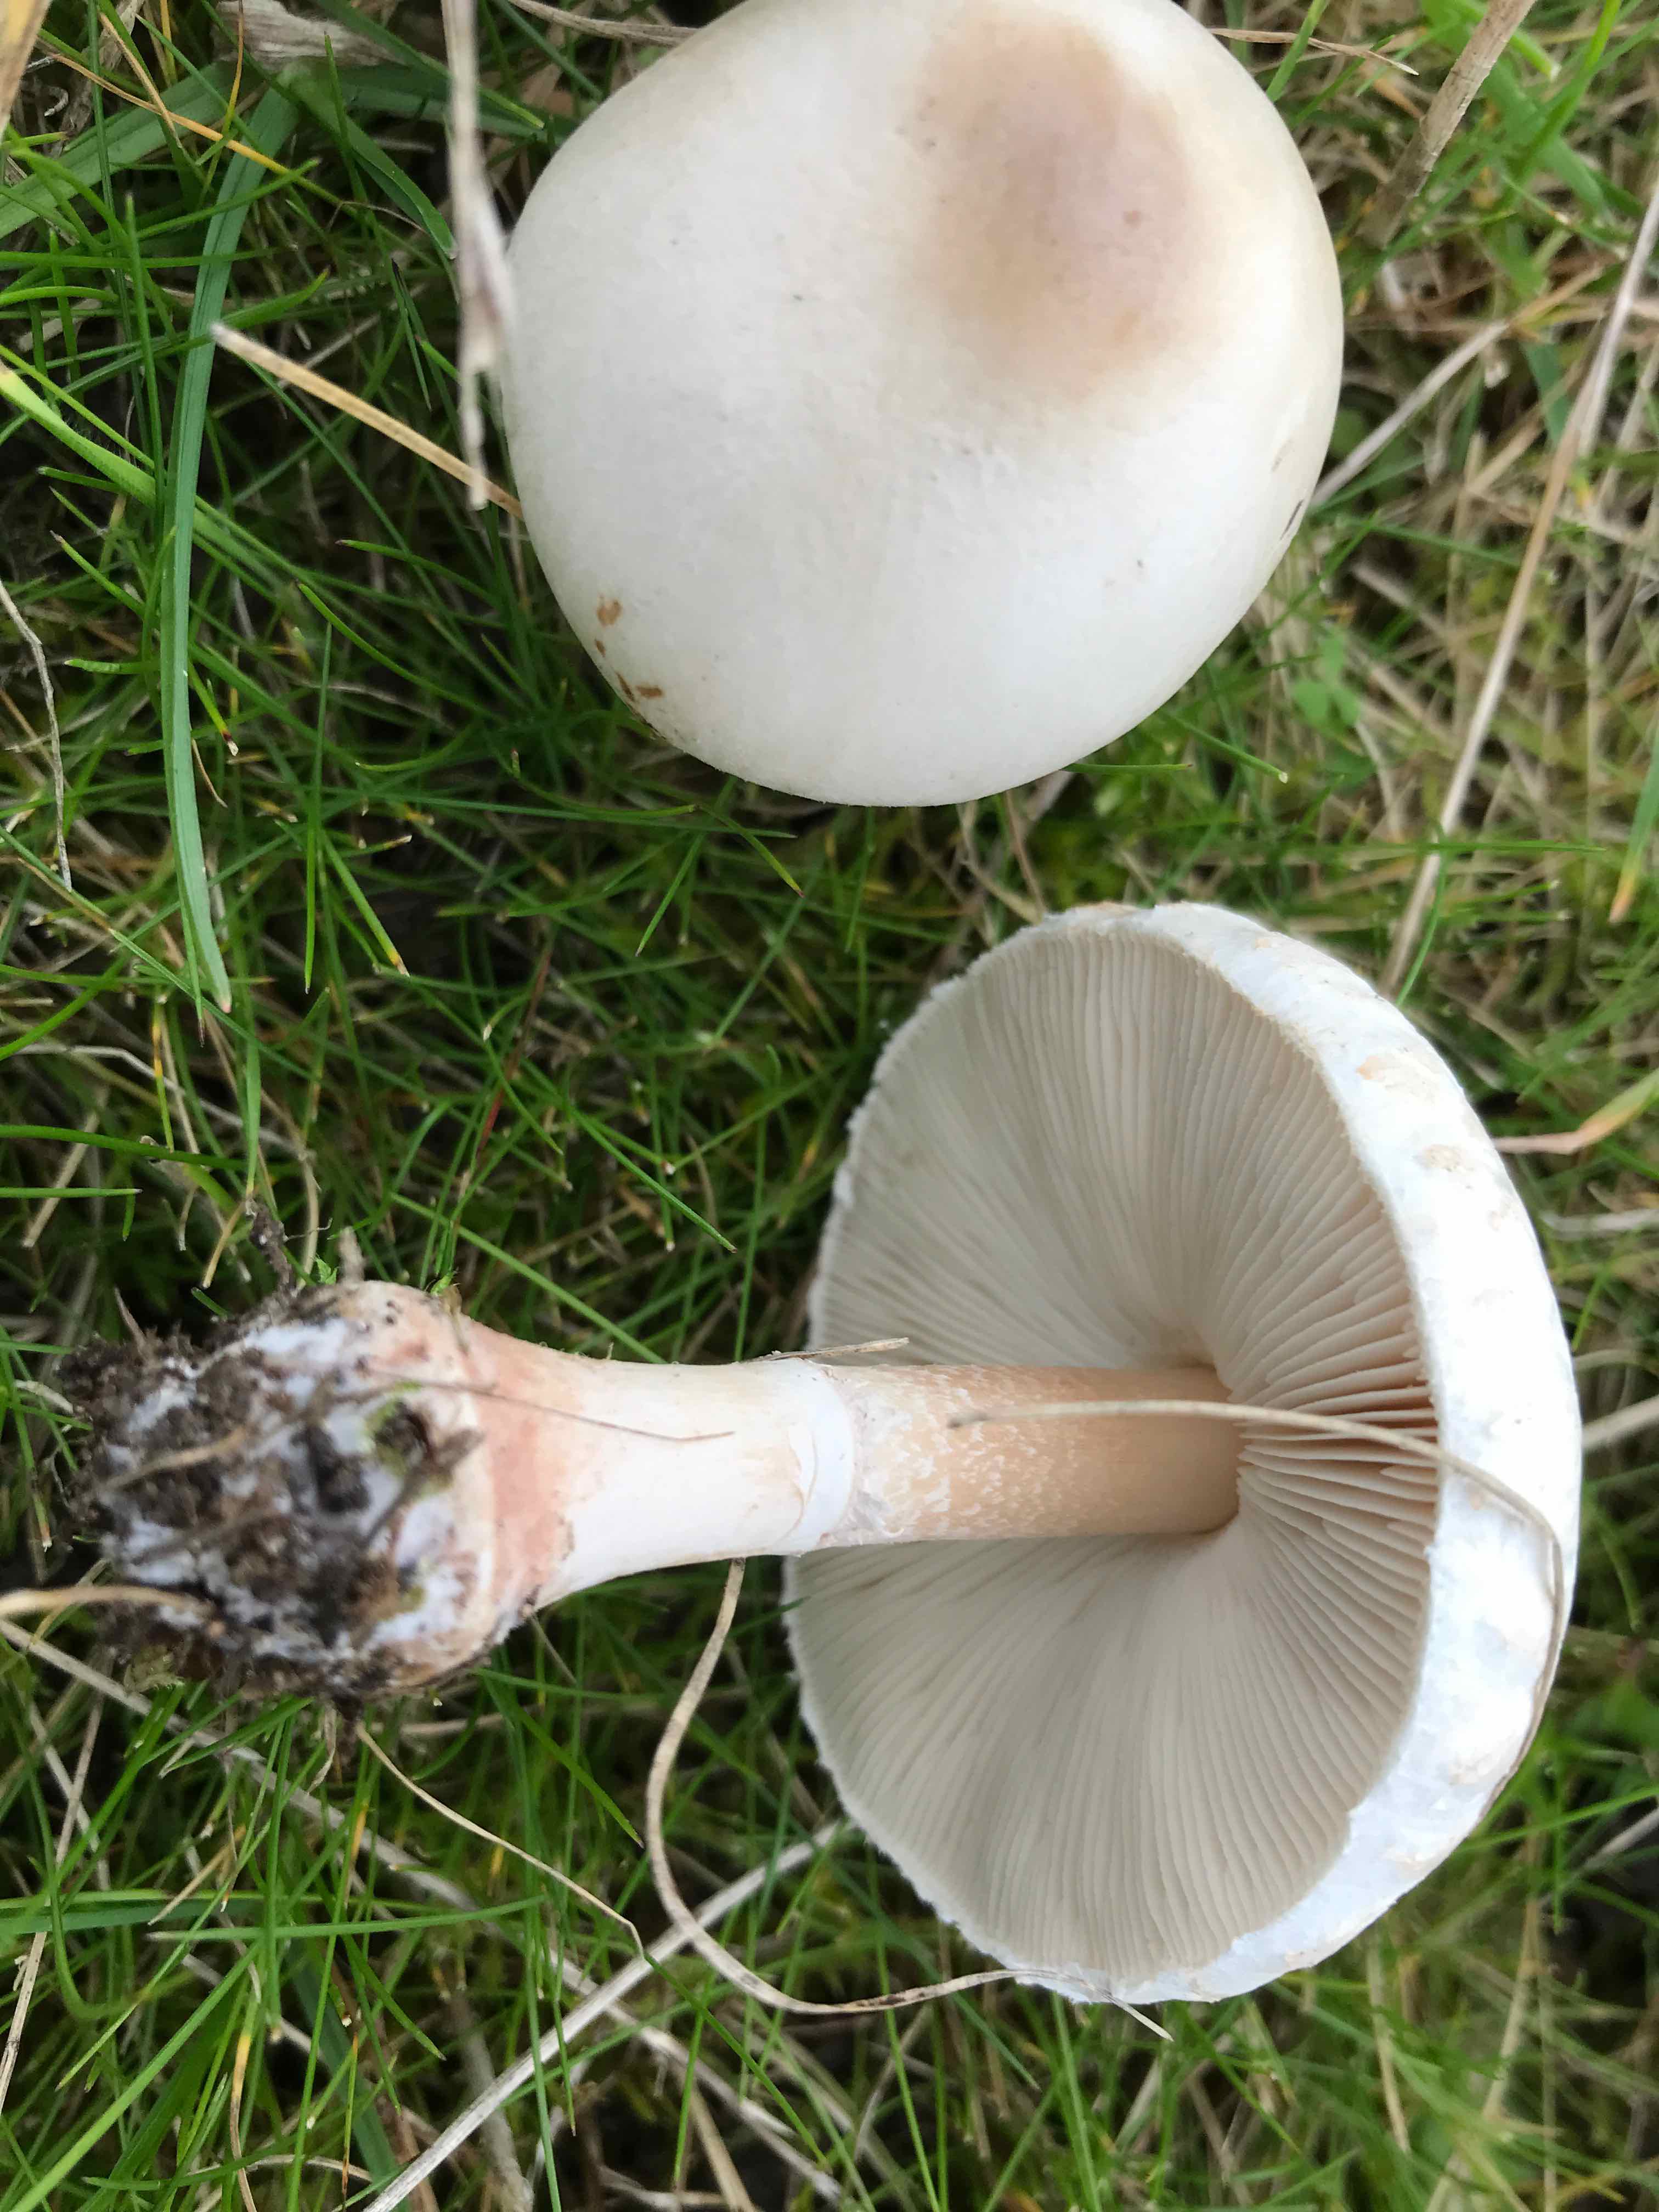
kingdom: Fungi
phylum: Basidiomycota
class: Agaricomycetes
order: Agaricales
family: Agaricaceae
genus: Leucoagaricus
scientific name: Leucoagaricus leucothites
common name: rosabladet silkehat
